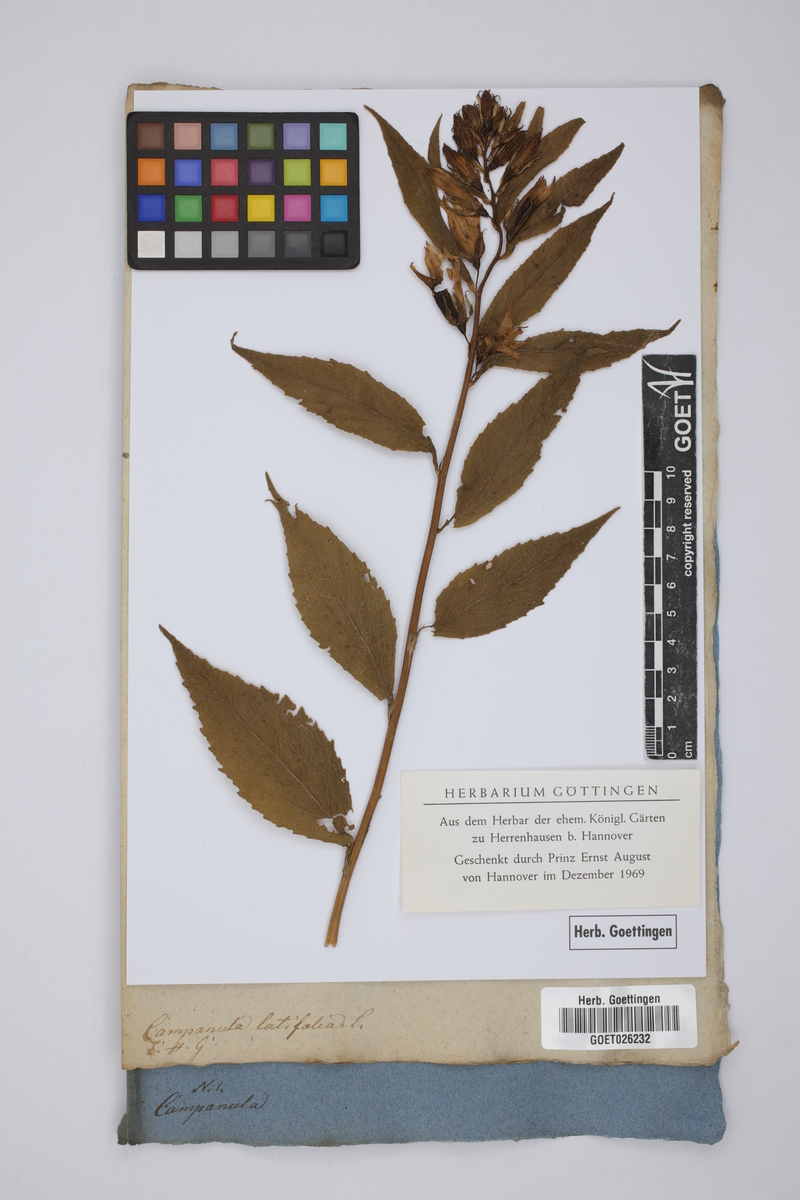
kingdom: Plantae
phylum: Tracheophyta
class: Magnoliopsida
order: Asterales
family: Campanulaceae
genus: Campanula
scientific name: Campanula latifolia
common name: Giant bellflower
